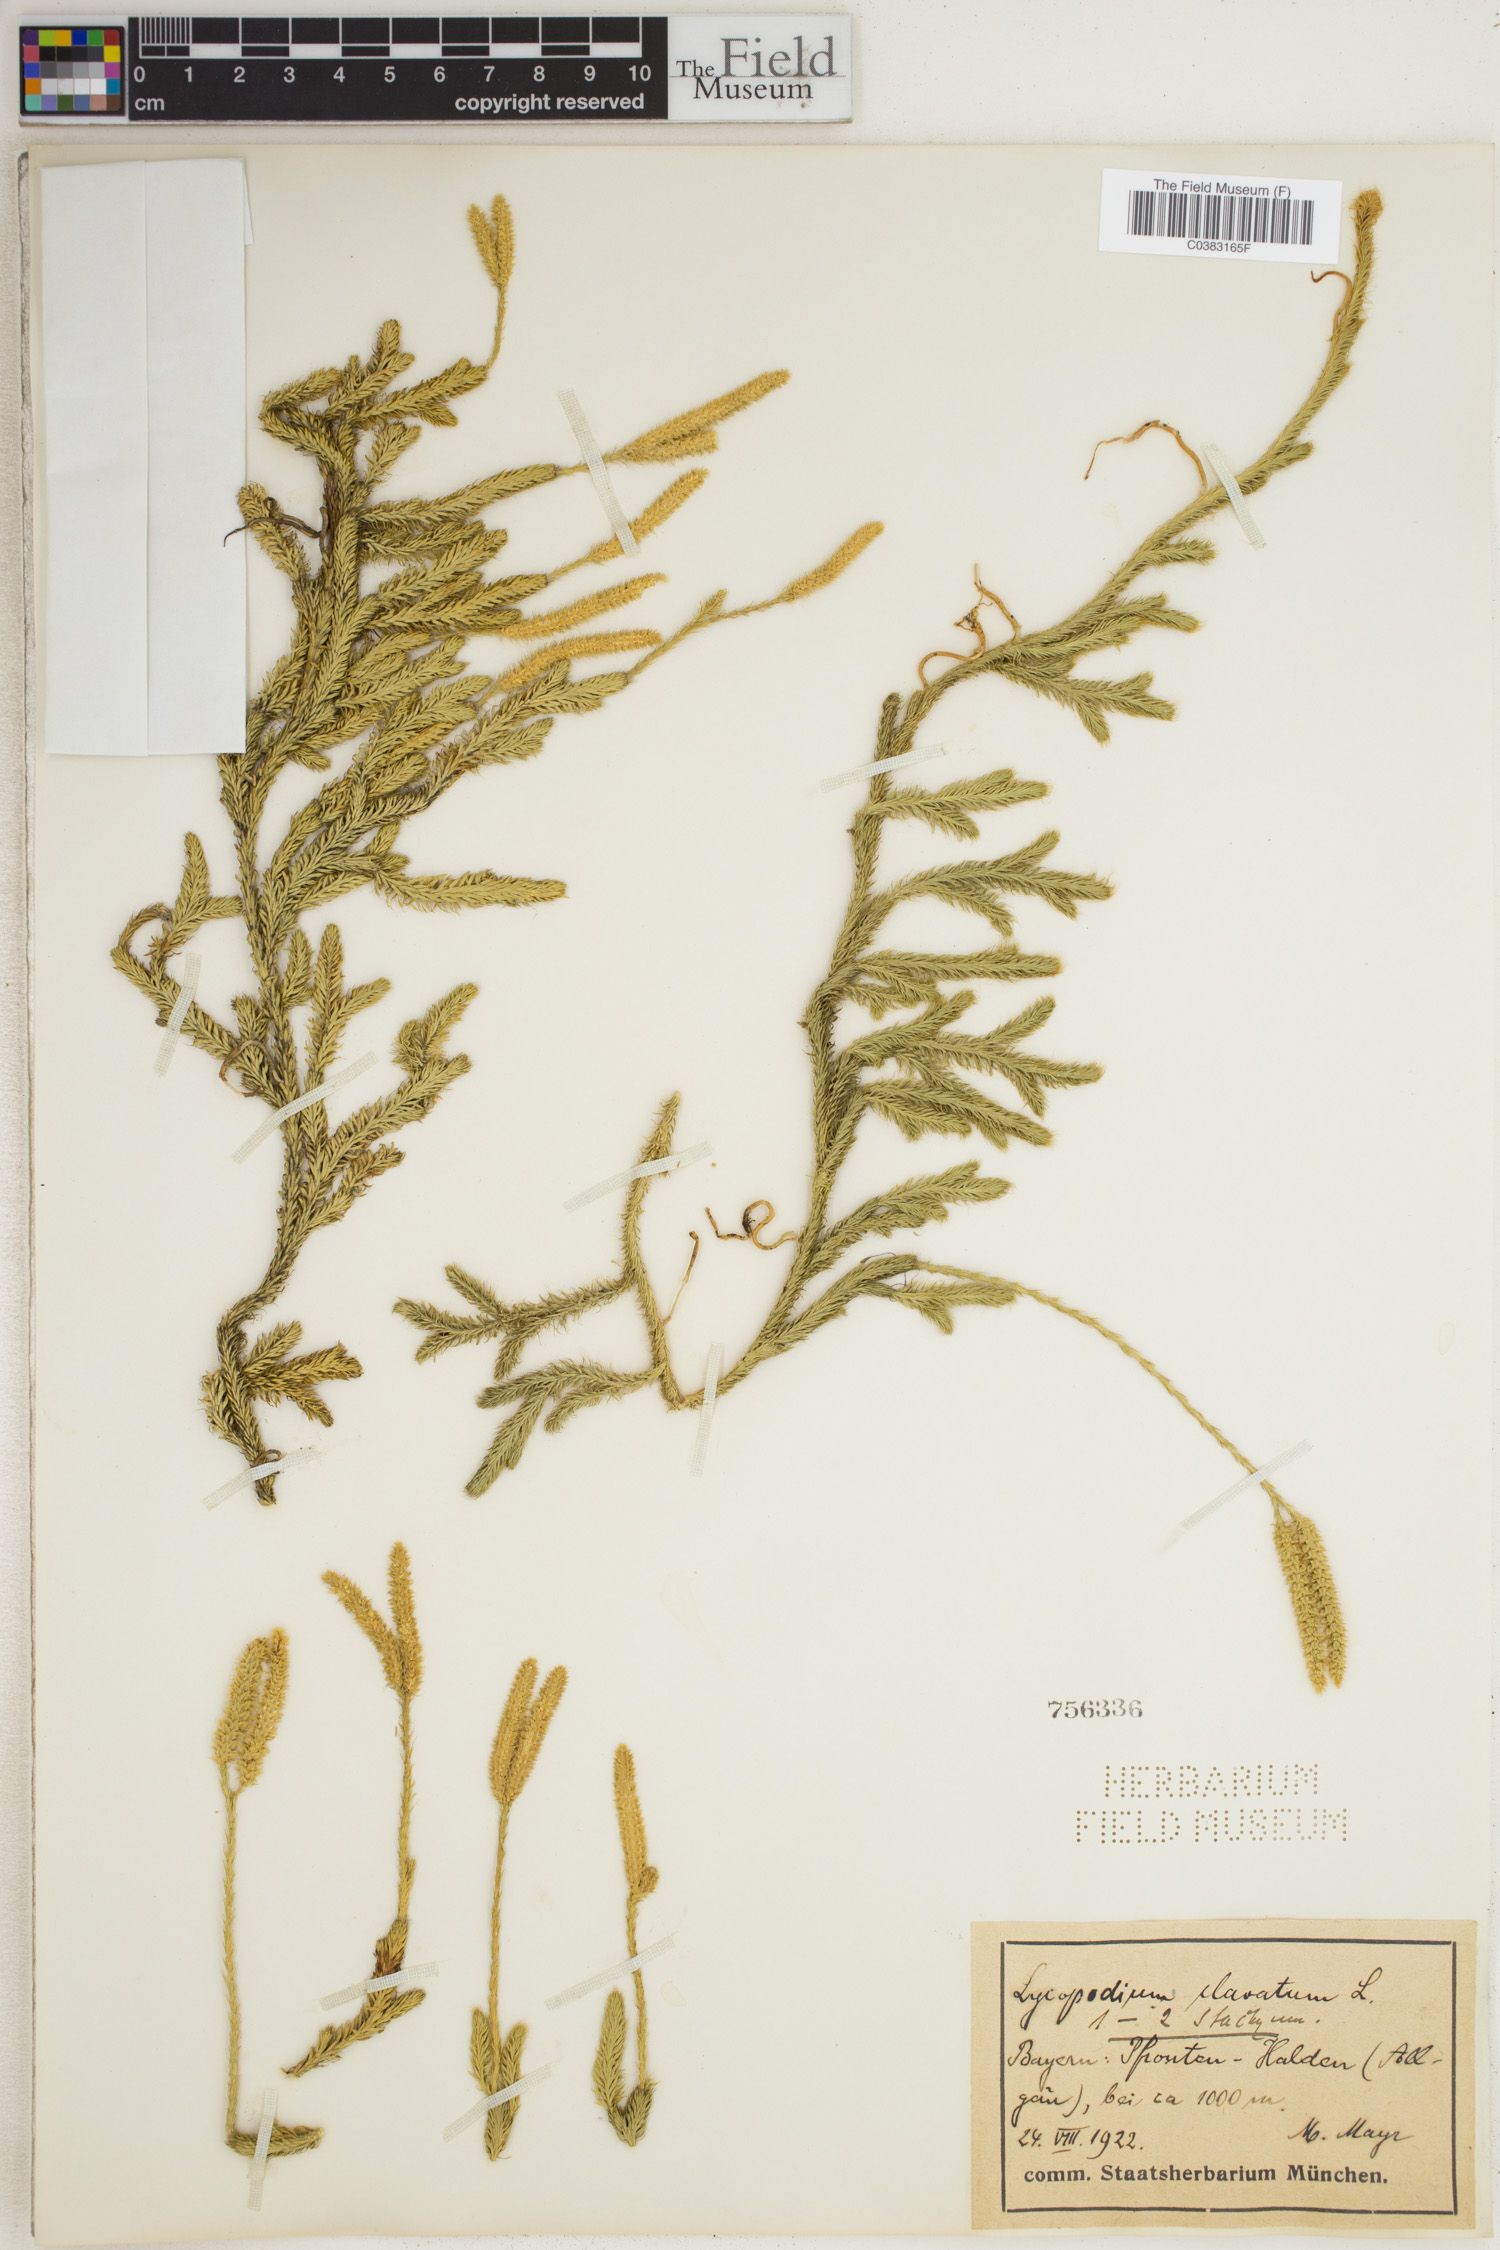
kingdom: Plantae
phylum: Tracheophyta
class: Lycopodiopsida
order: Lycopodiales
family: Lycopodiaceae
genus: Lycopodium
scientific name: Lycopodium clavatum
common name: Stag's-horn clubmoss
